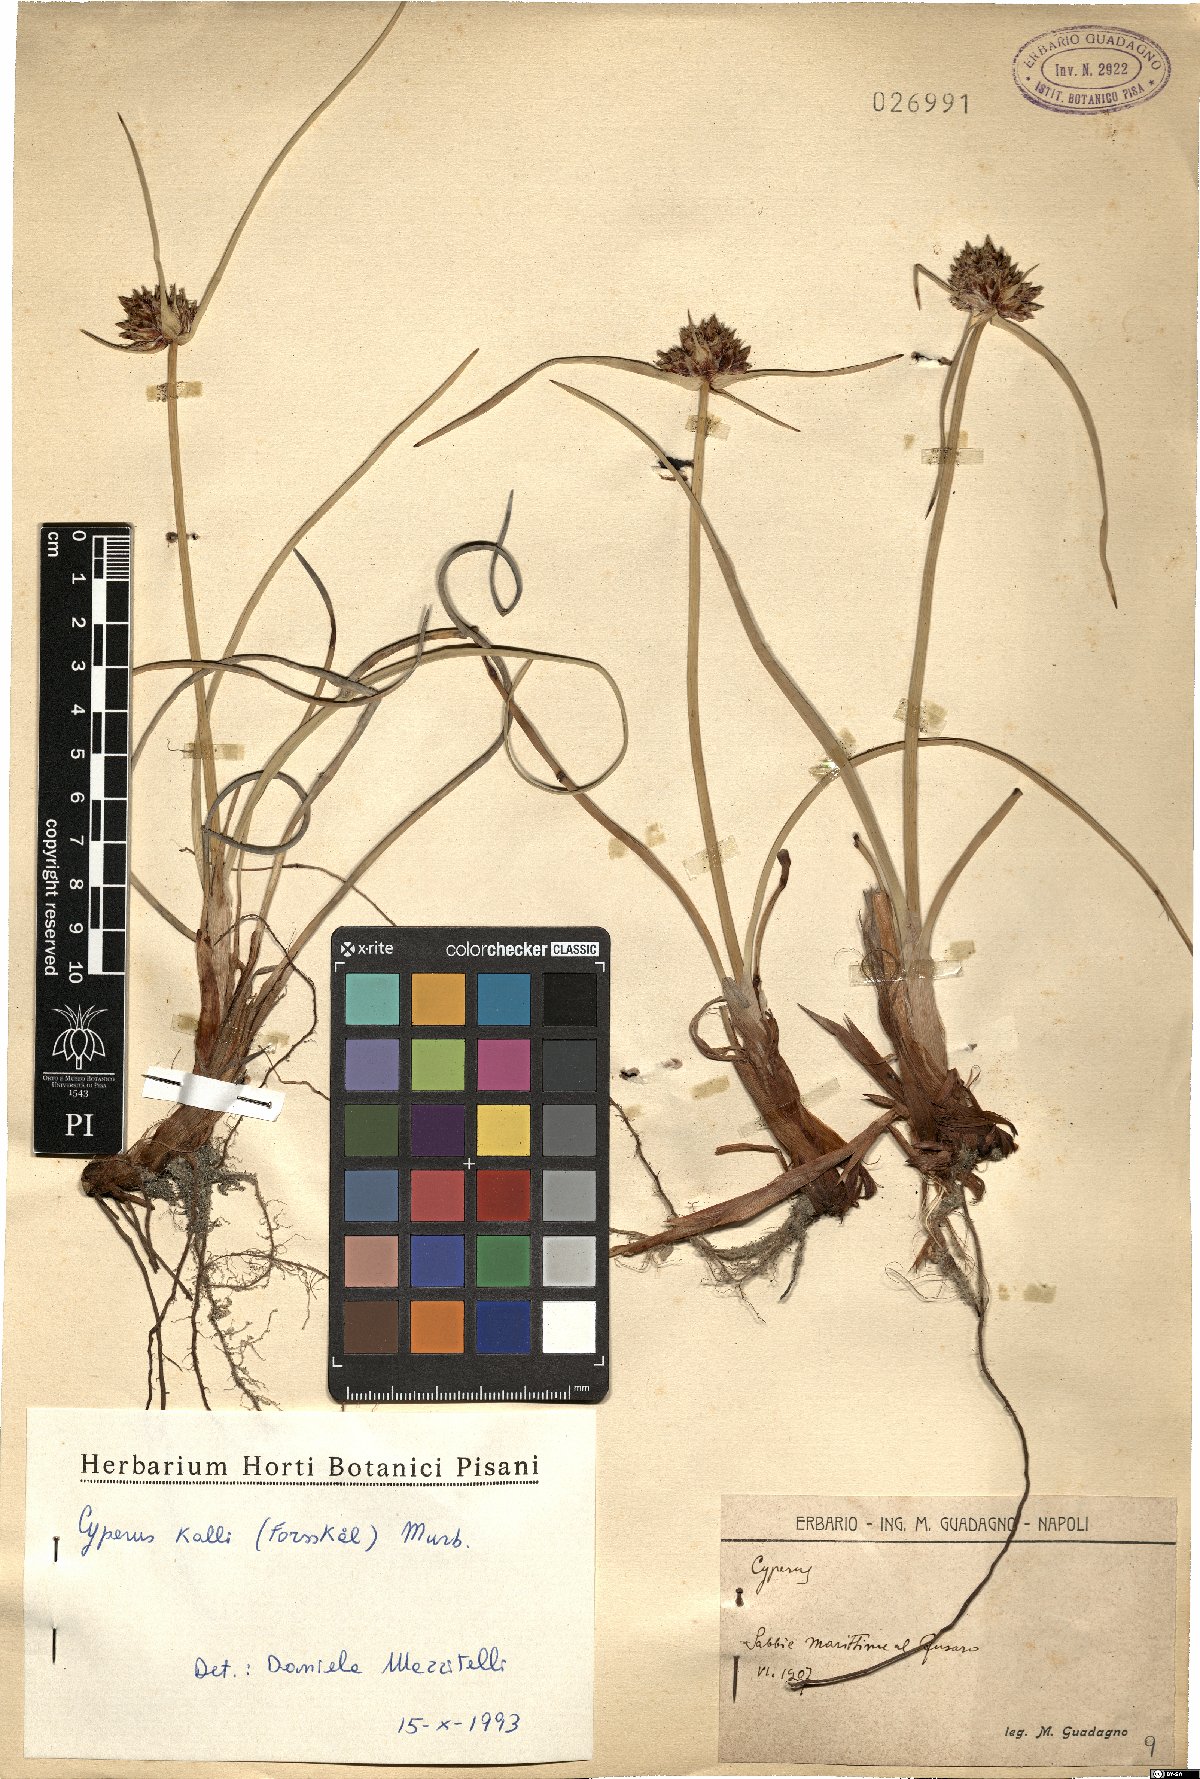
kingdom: Plantae
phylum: Tracheophyta
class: Liliopsida
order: Poales
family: Cyperaceae
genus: Cyperus
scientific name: Cyperus capitatus
